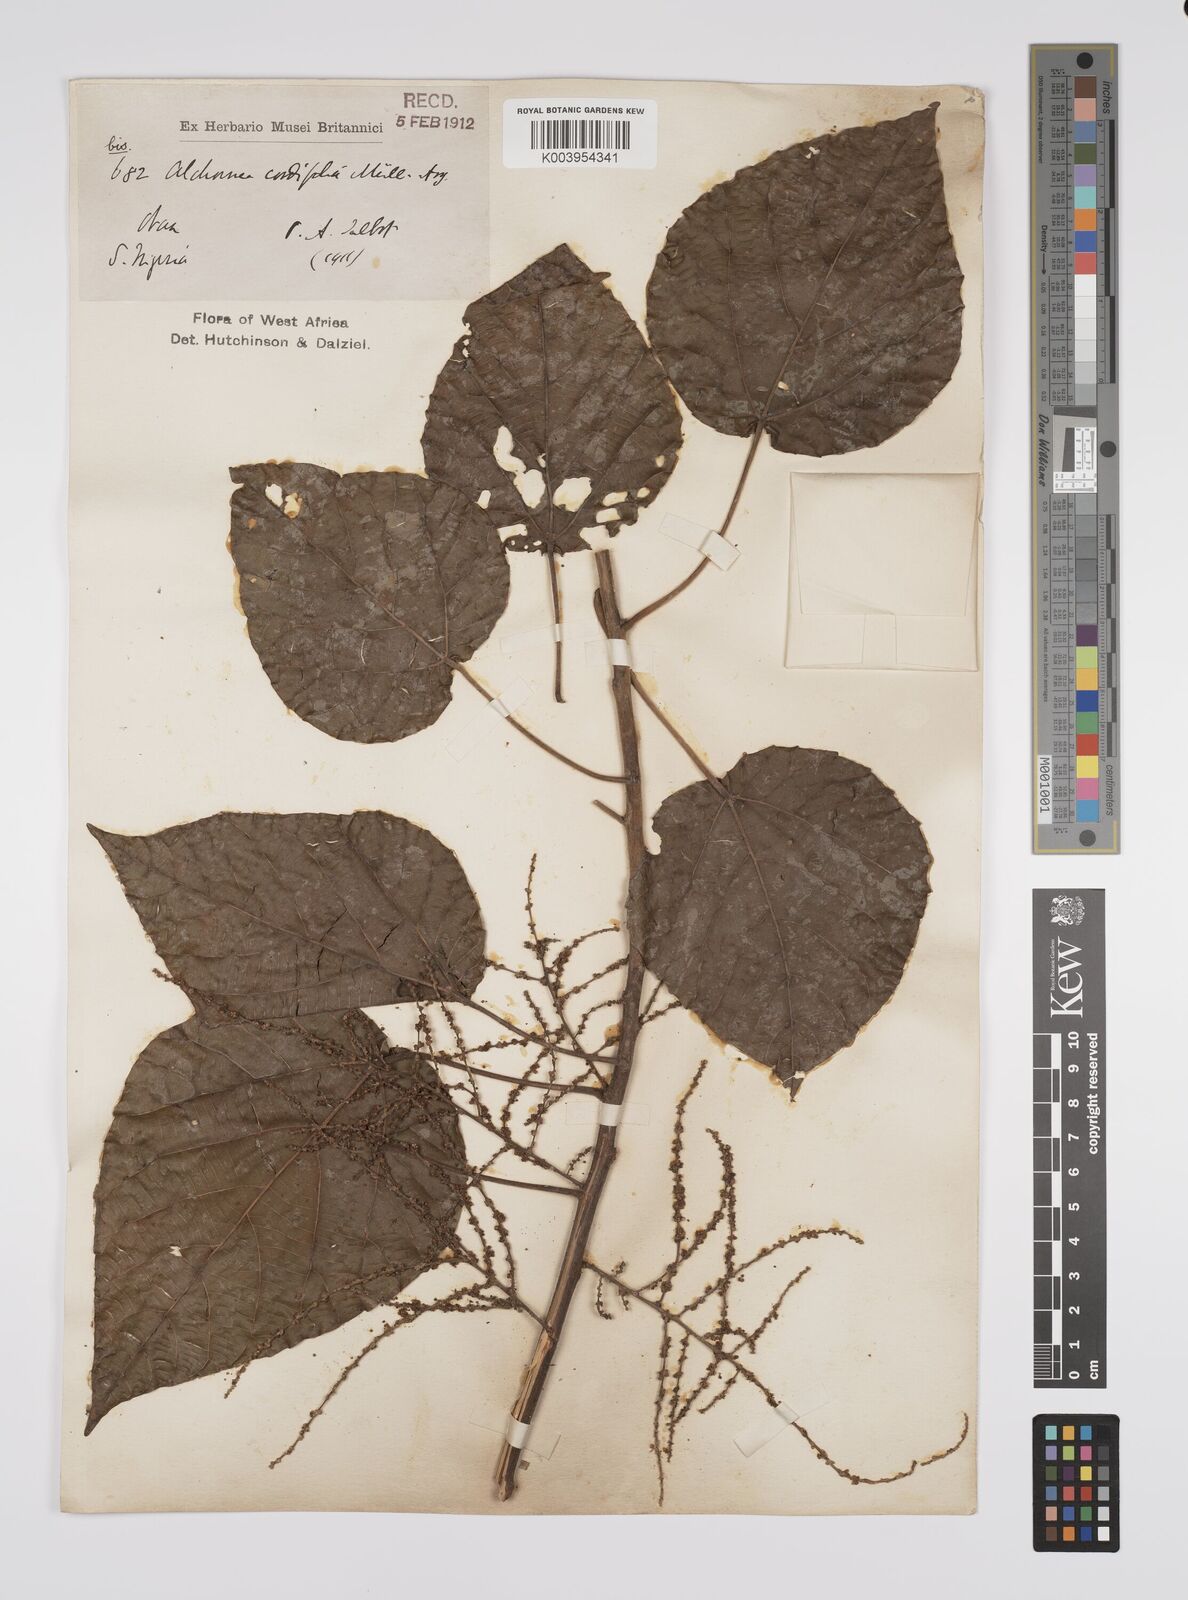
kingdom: Plantae
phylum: Tracheophyta
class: Magnoliopsida
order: Malpighiales
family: Euphorbiaceae
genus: Alchornea
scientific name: Alchornea cordifolia
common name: Christmasbush
